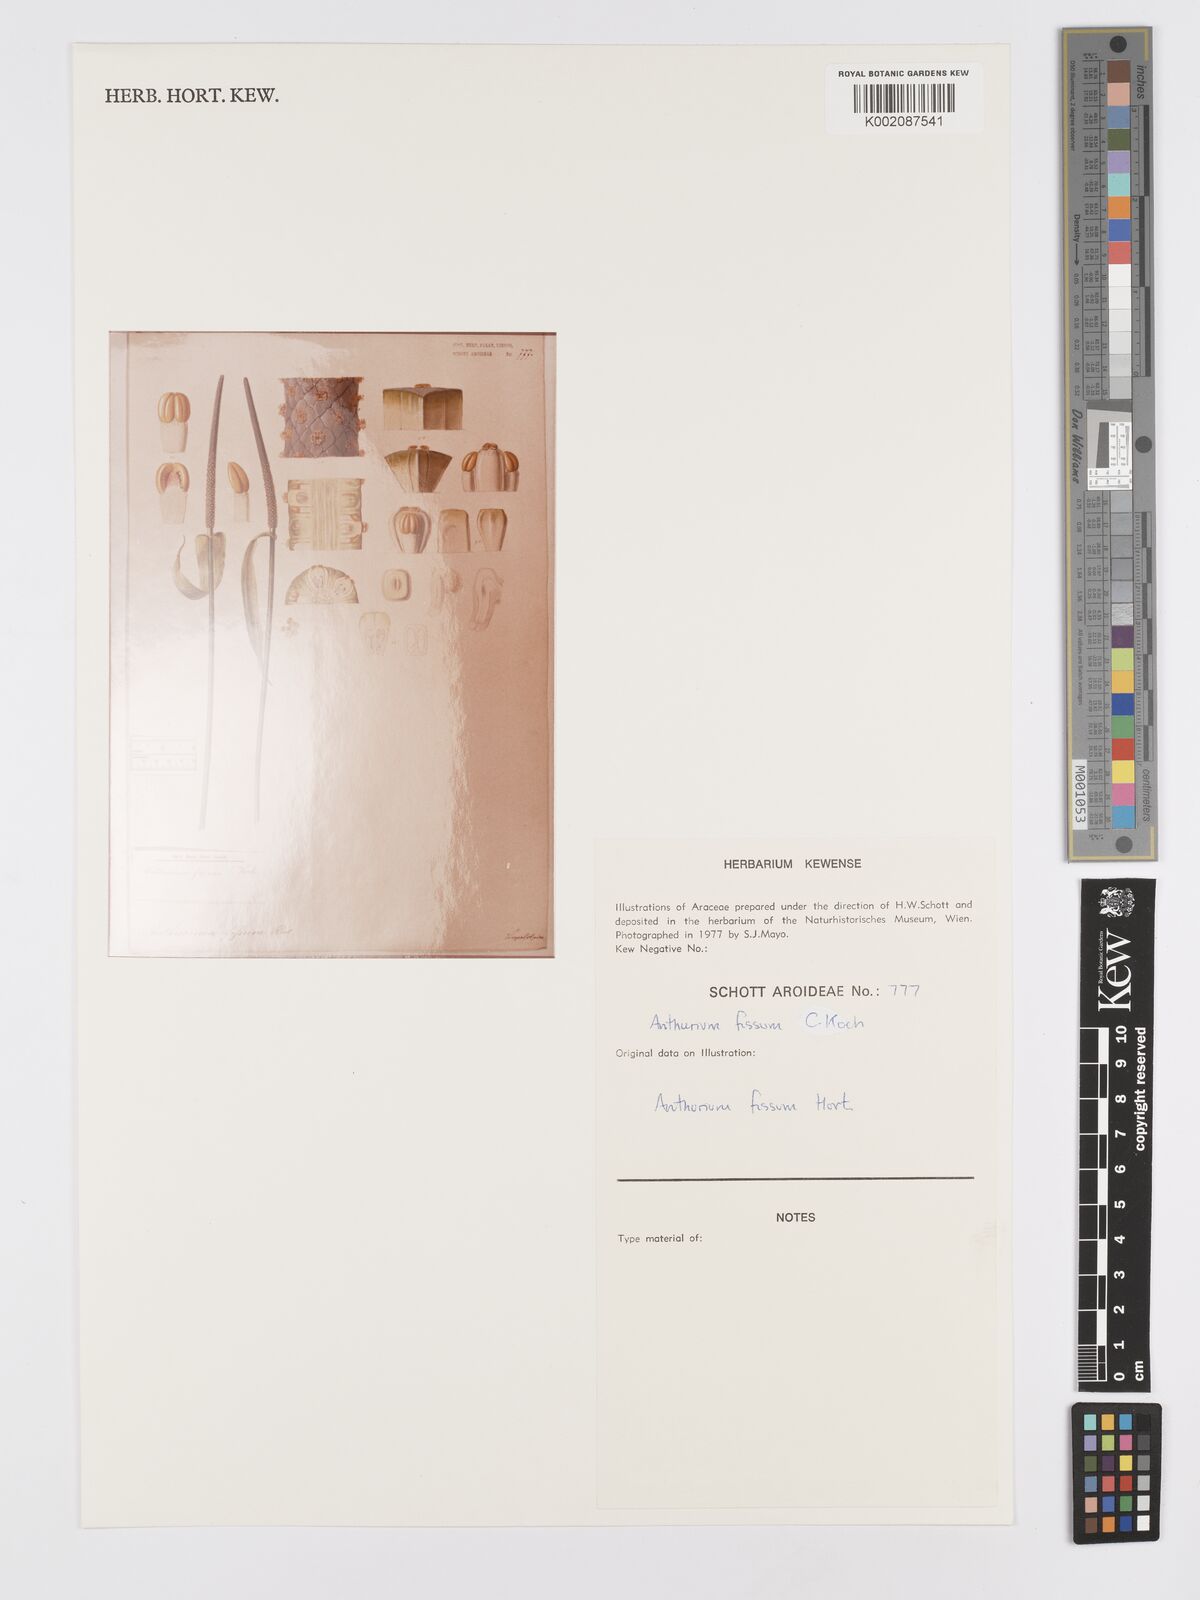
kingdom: Plantae
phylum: Tracheophyta
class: Liliopsida
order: Alismatales
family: Araceae
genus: Anthurium
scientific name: Anthurium
